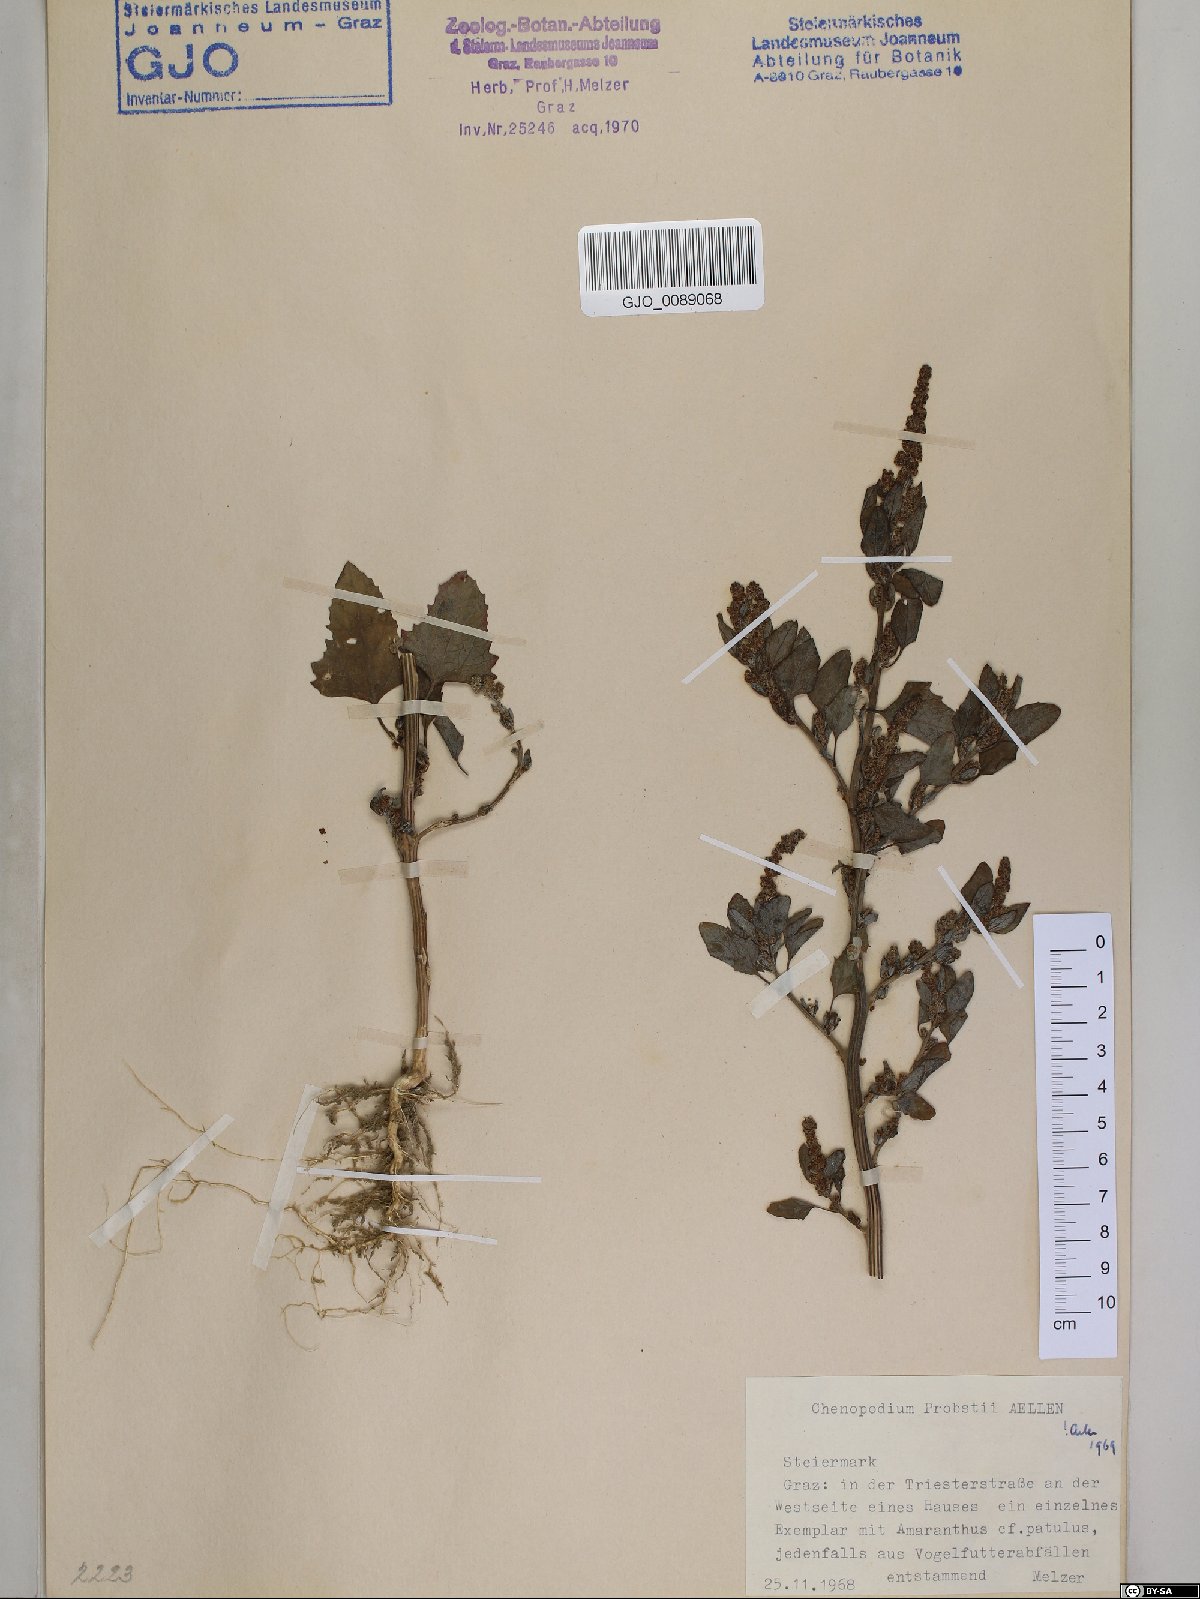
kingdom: Plantae
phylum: Tracheophyta
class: Magnoliopsida
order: Caryophyllales
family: Amaranthaceae
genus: Chenopodium
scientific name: Chenopodium probstii
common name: Probst's goosefoot
